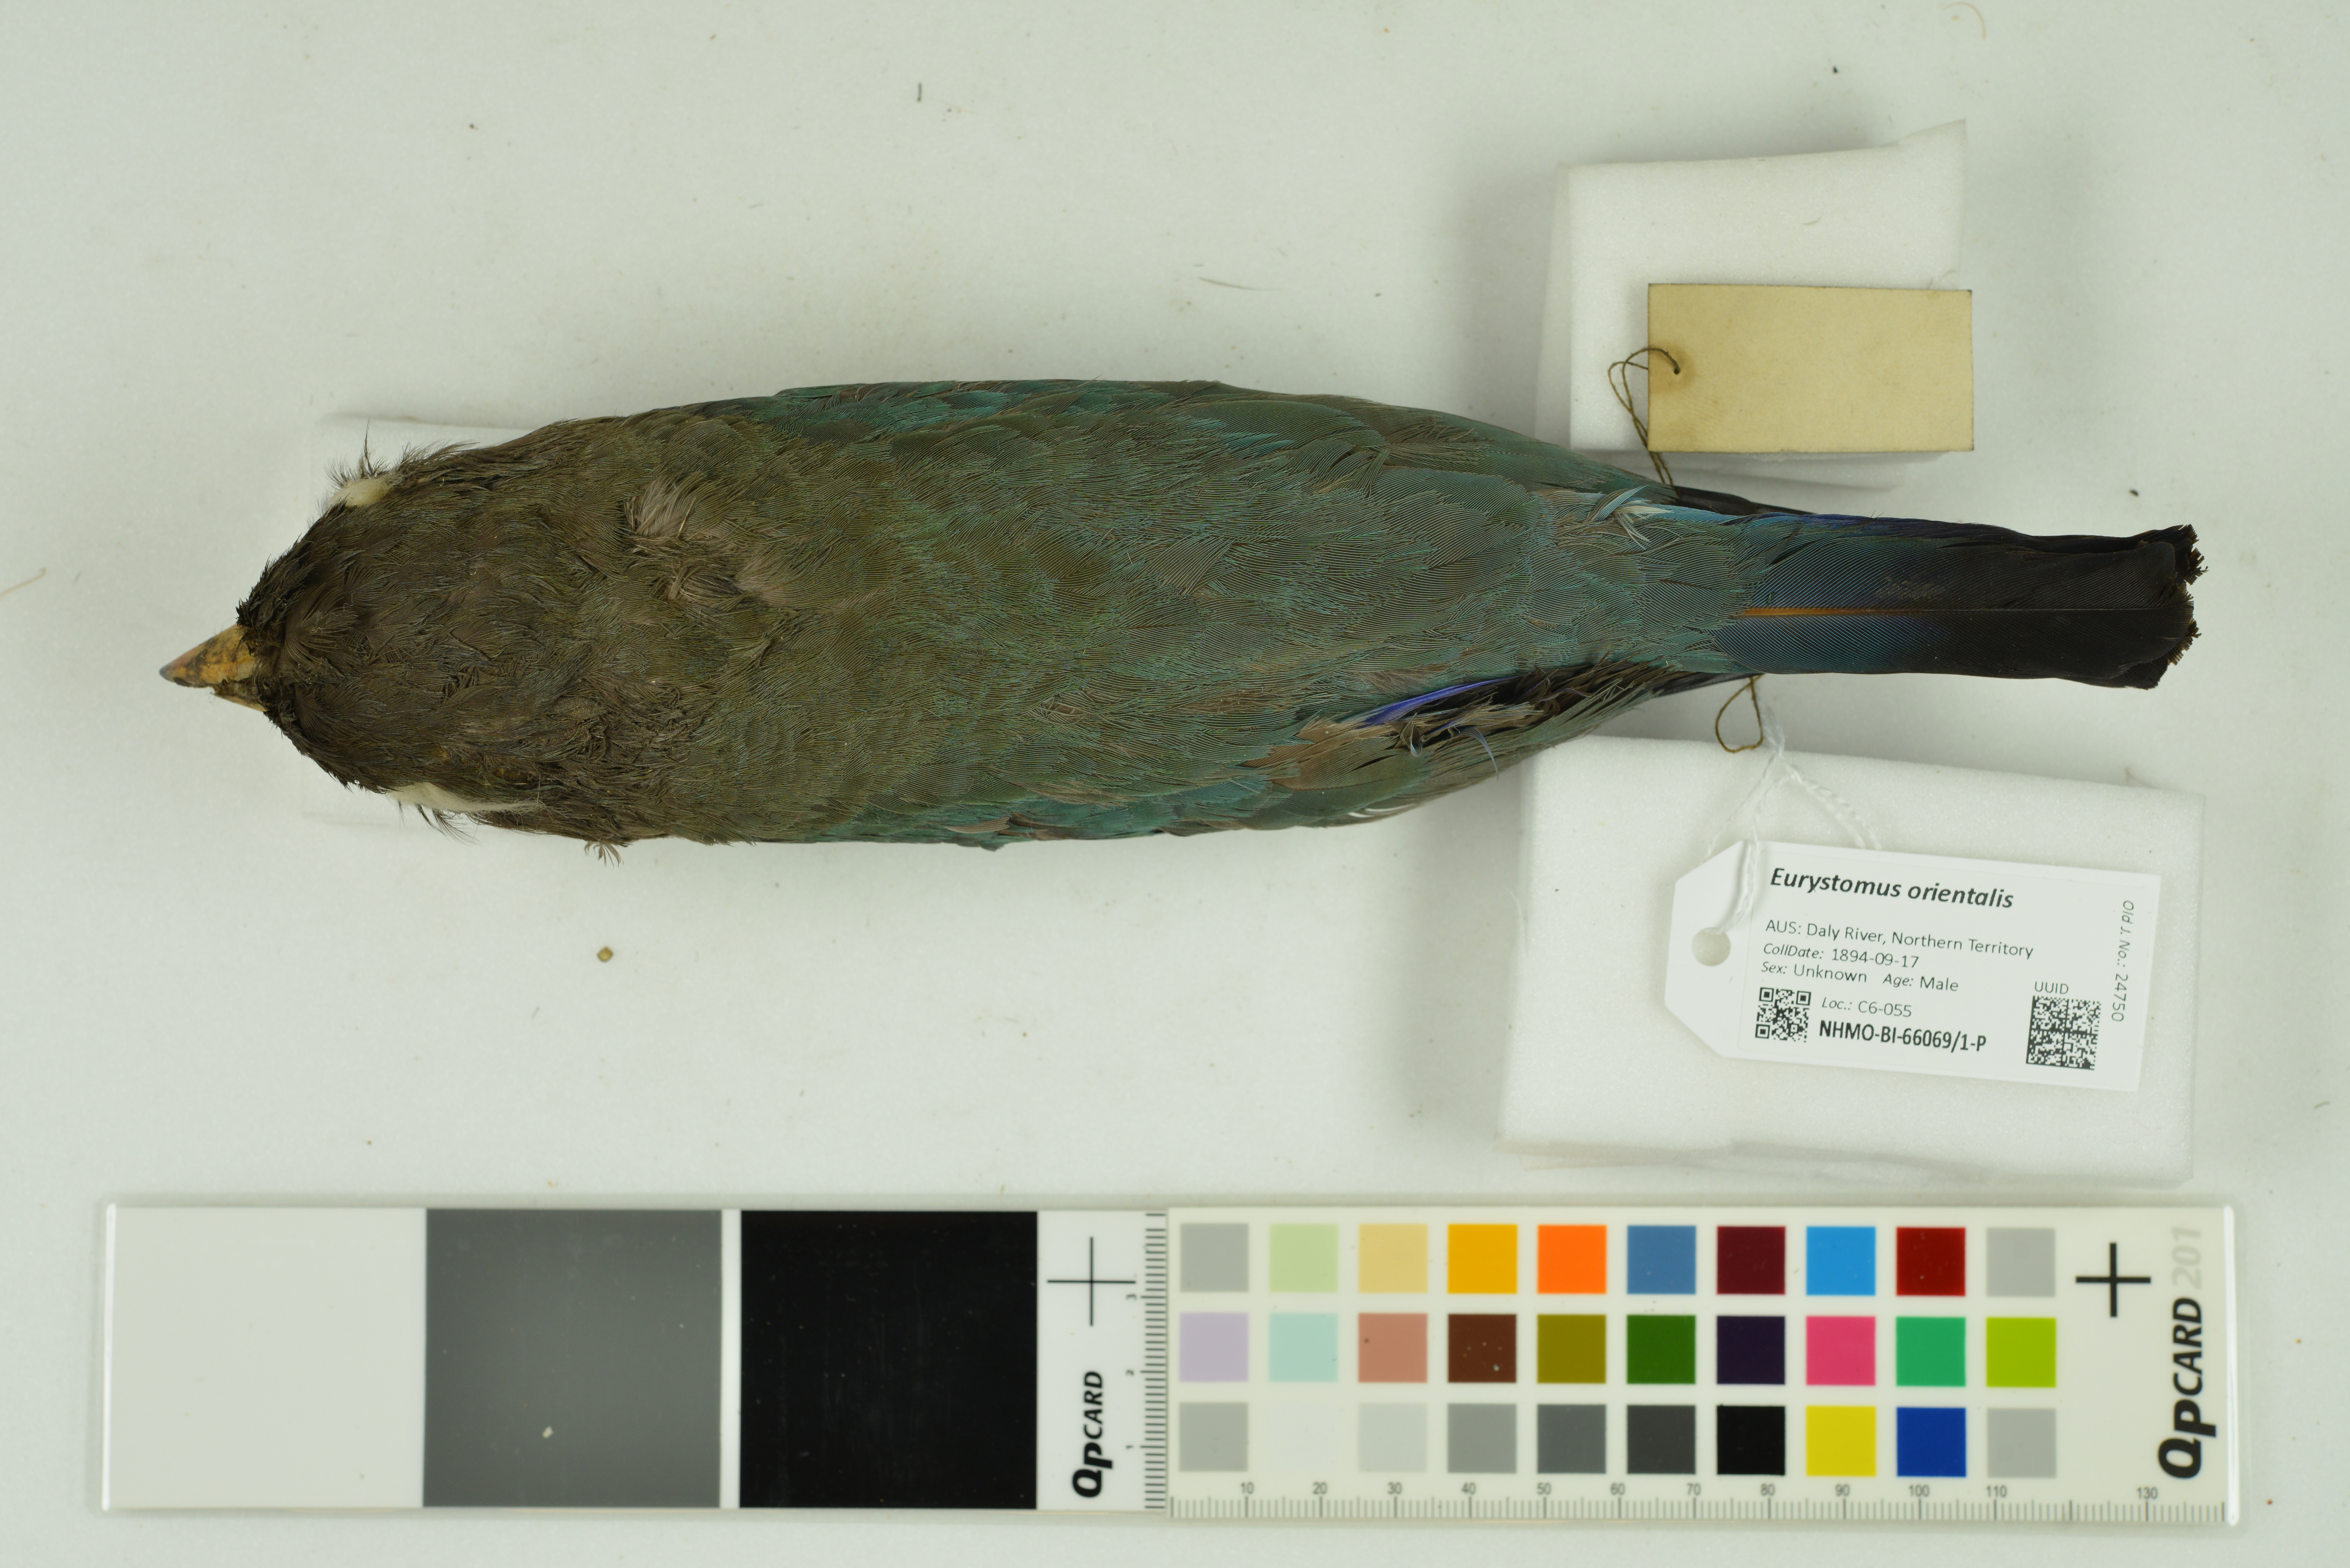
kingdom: Animalia
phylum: Chordata
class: Aves
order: Coraciiformes
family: Coraciidae
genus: Eurystomus
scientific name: Eurystomus orientalis
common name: Oriental dollarbird
